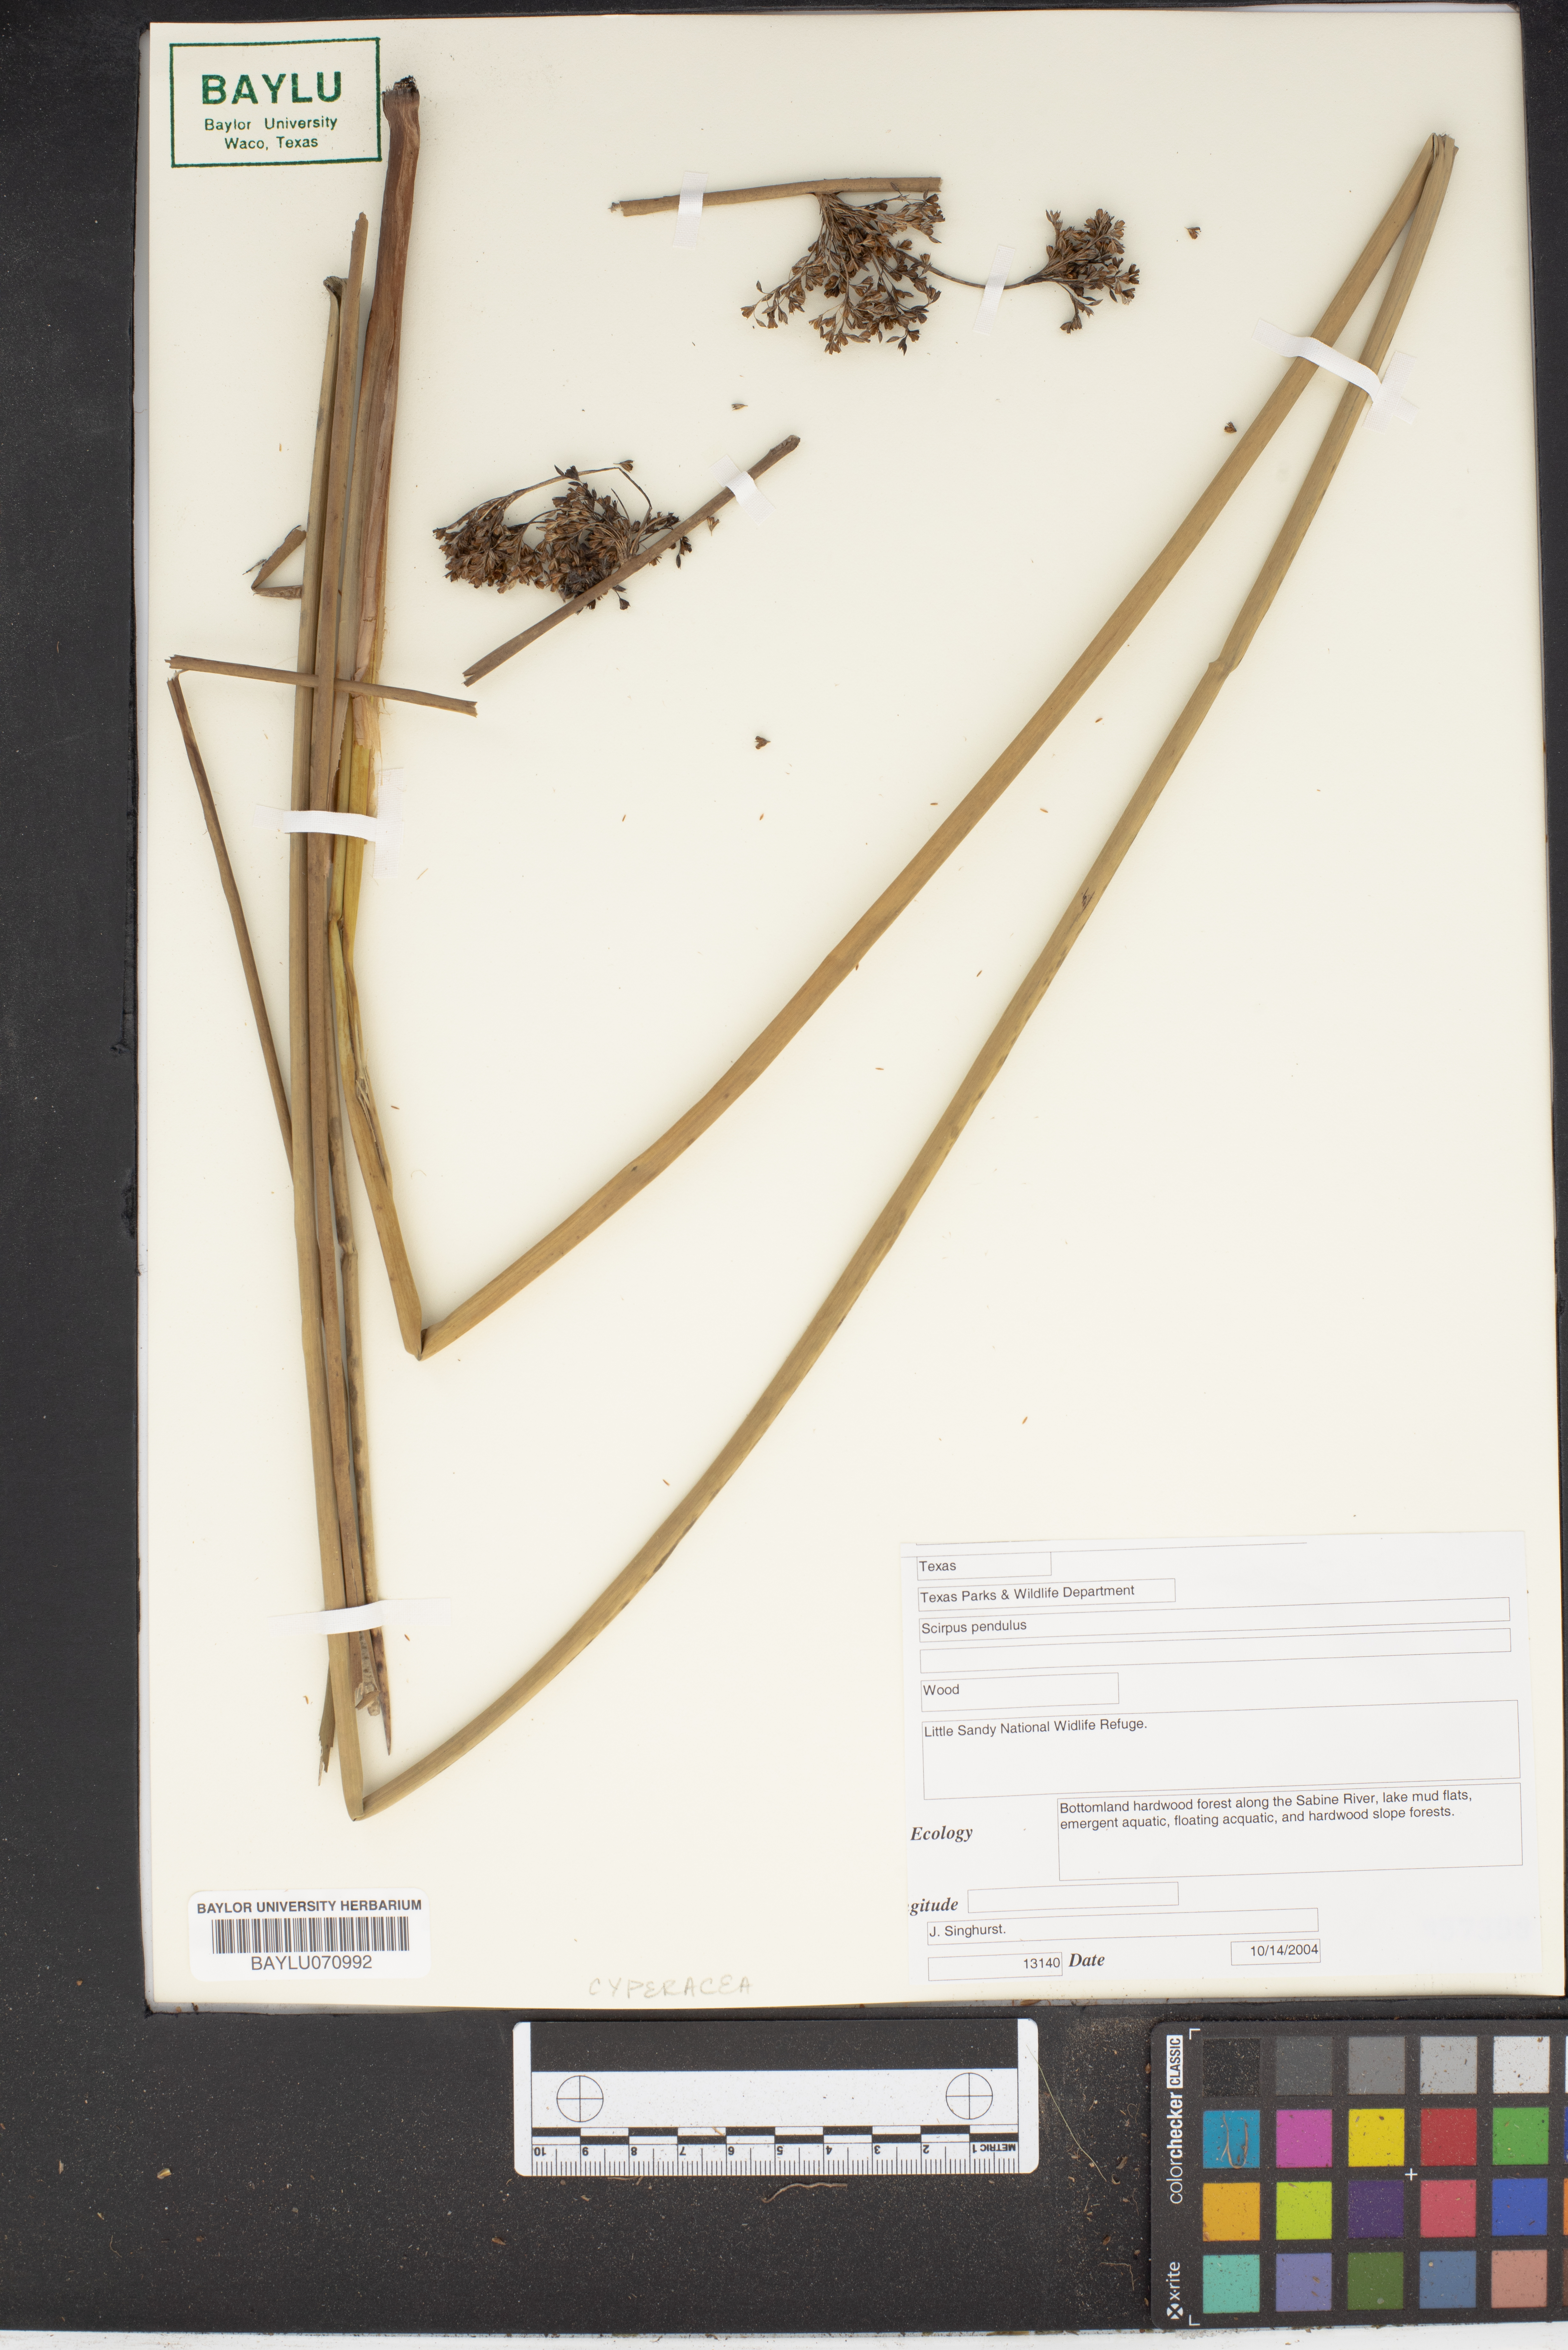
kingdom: Plantae
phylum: Tracheophyta
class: Liliopsida
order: Poales
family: Cyperaceae
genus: Scirpus
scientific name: Scirpus pendulus
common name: Nodding bulrush
